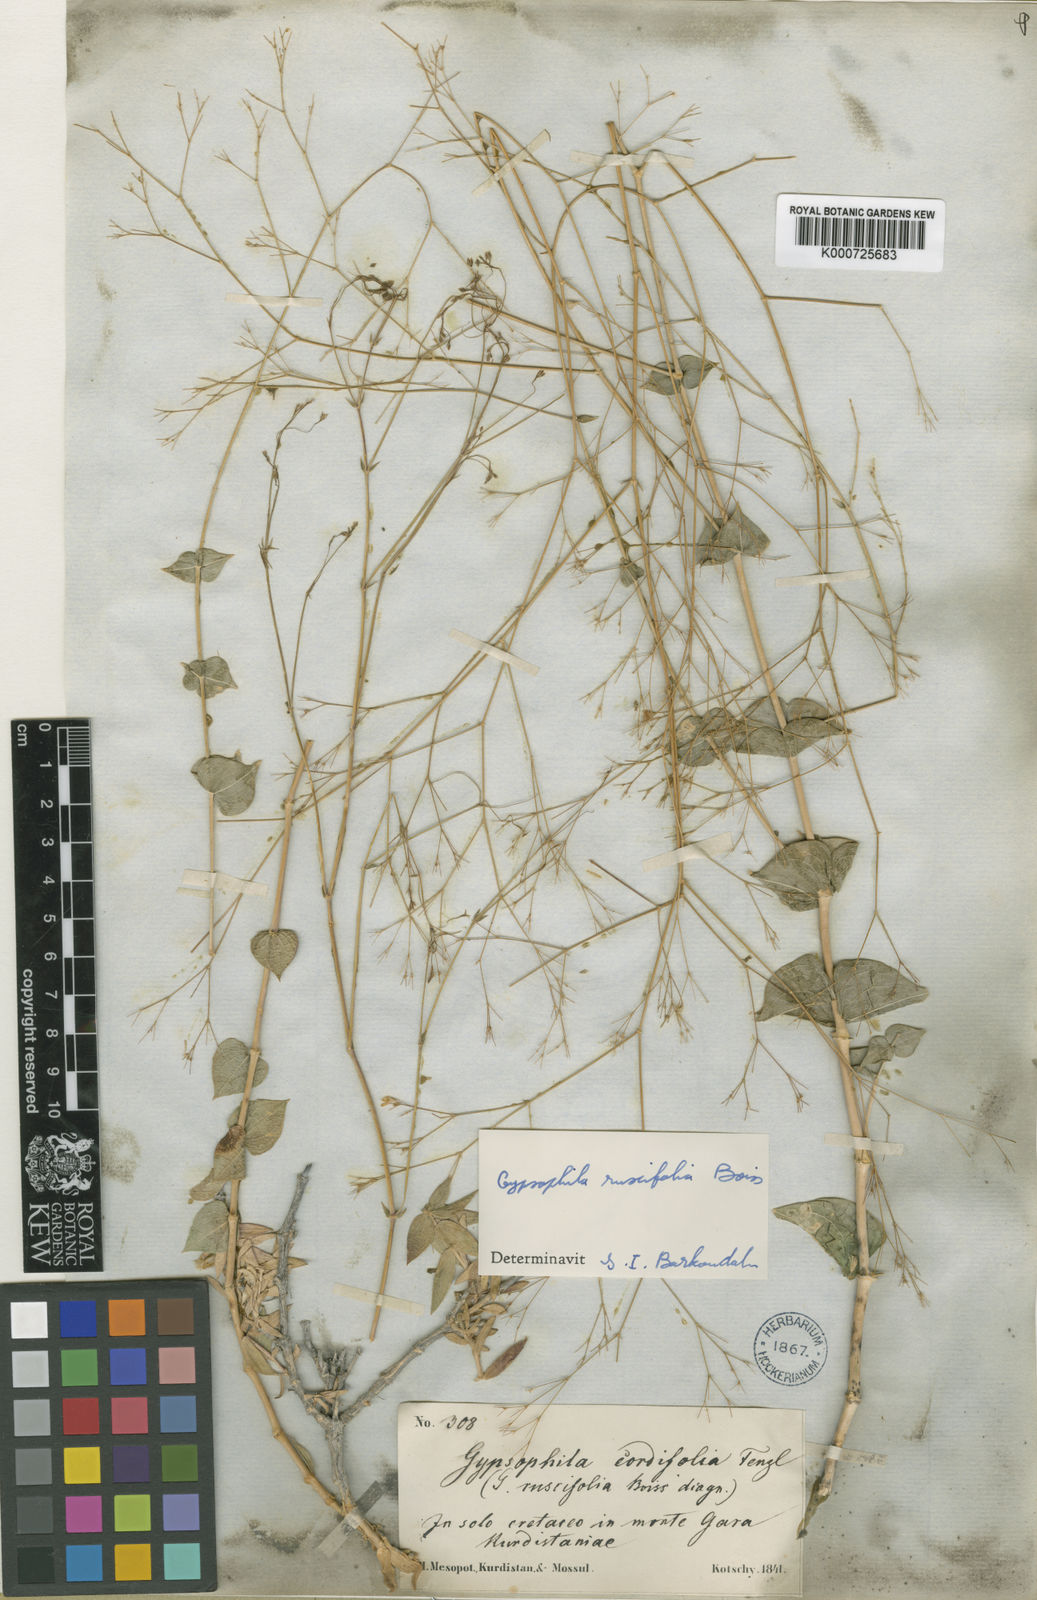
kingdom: Plantae
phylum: Tracheophyta
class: Magnoliopsida
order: Caryophyllales
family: Caryophyllaceae
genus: Gypsophila
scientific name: Gypsophila ruscifolia
